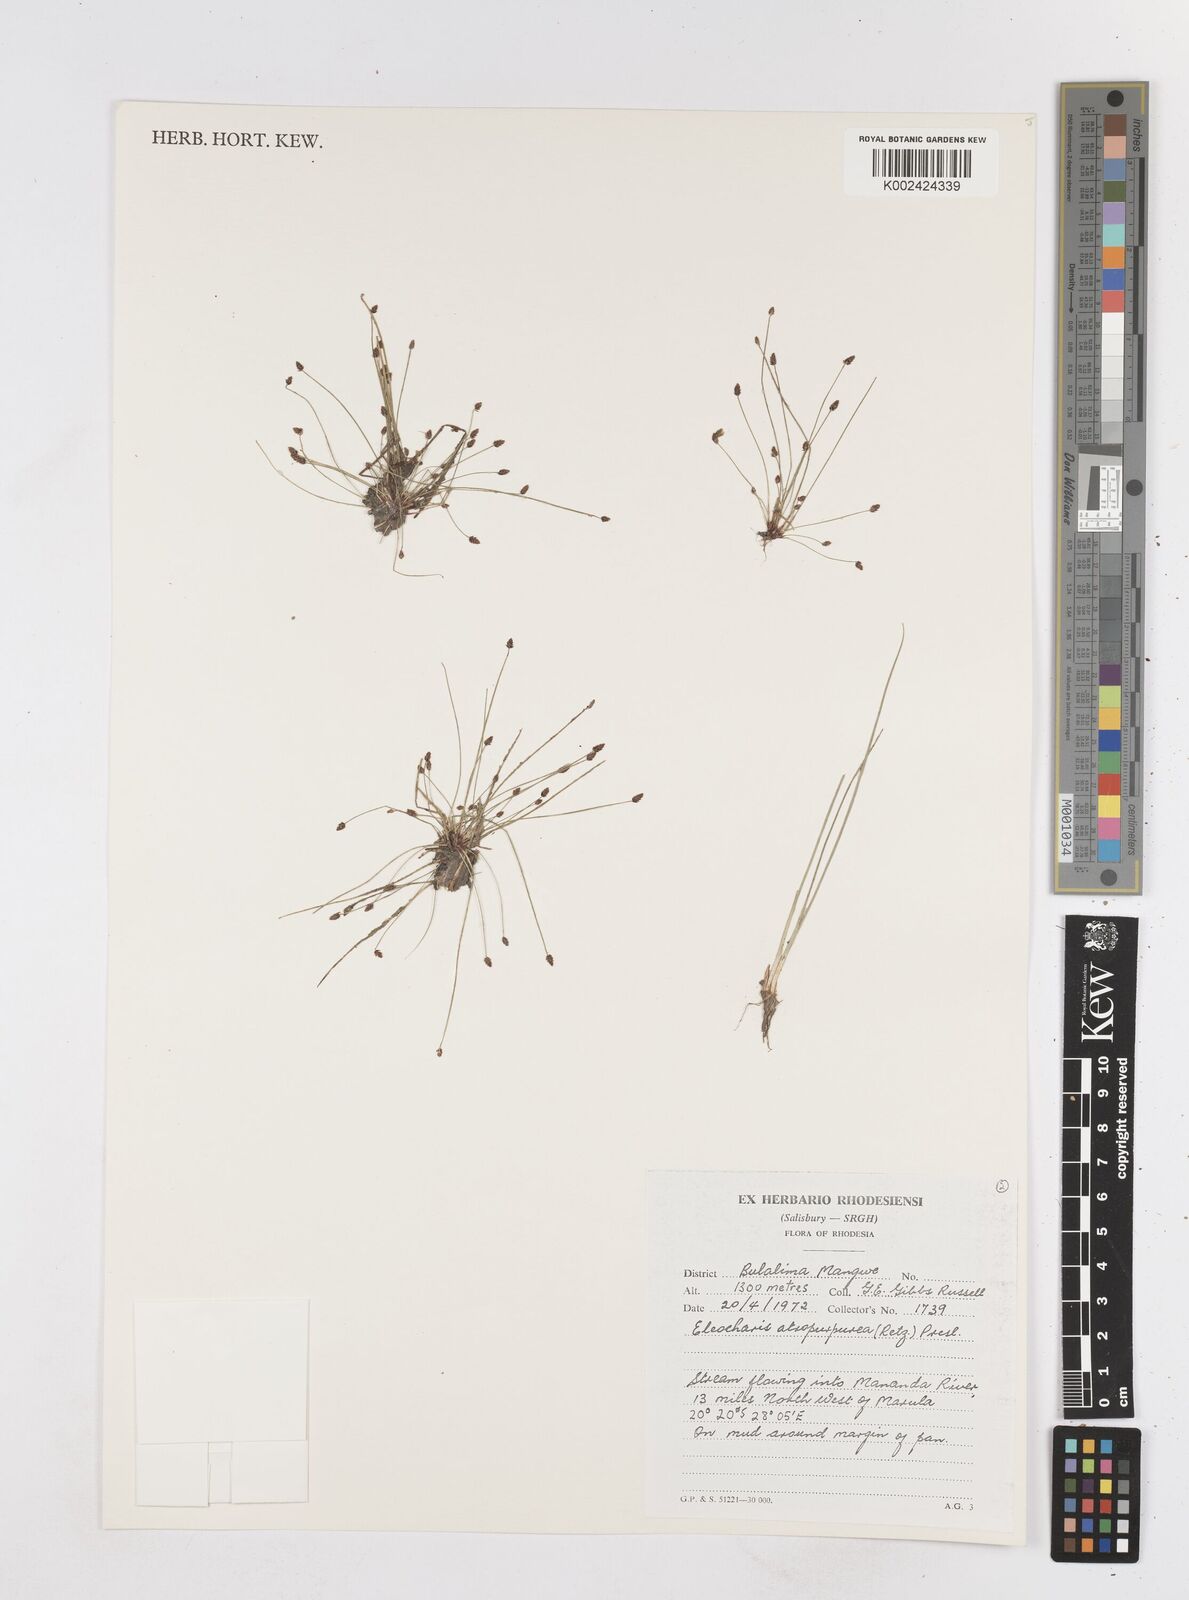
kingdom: Plantae
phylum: Tracheophyta
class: Liliopsida
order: Poales
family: Cyperaceae
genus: Eleocharis
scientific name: Eleocharis atropurpurea
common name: Purple spikerush
